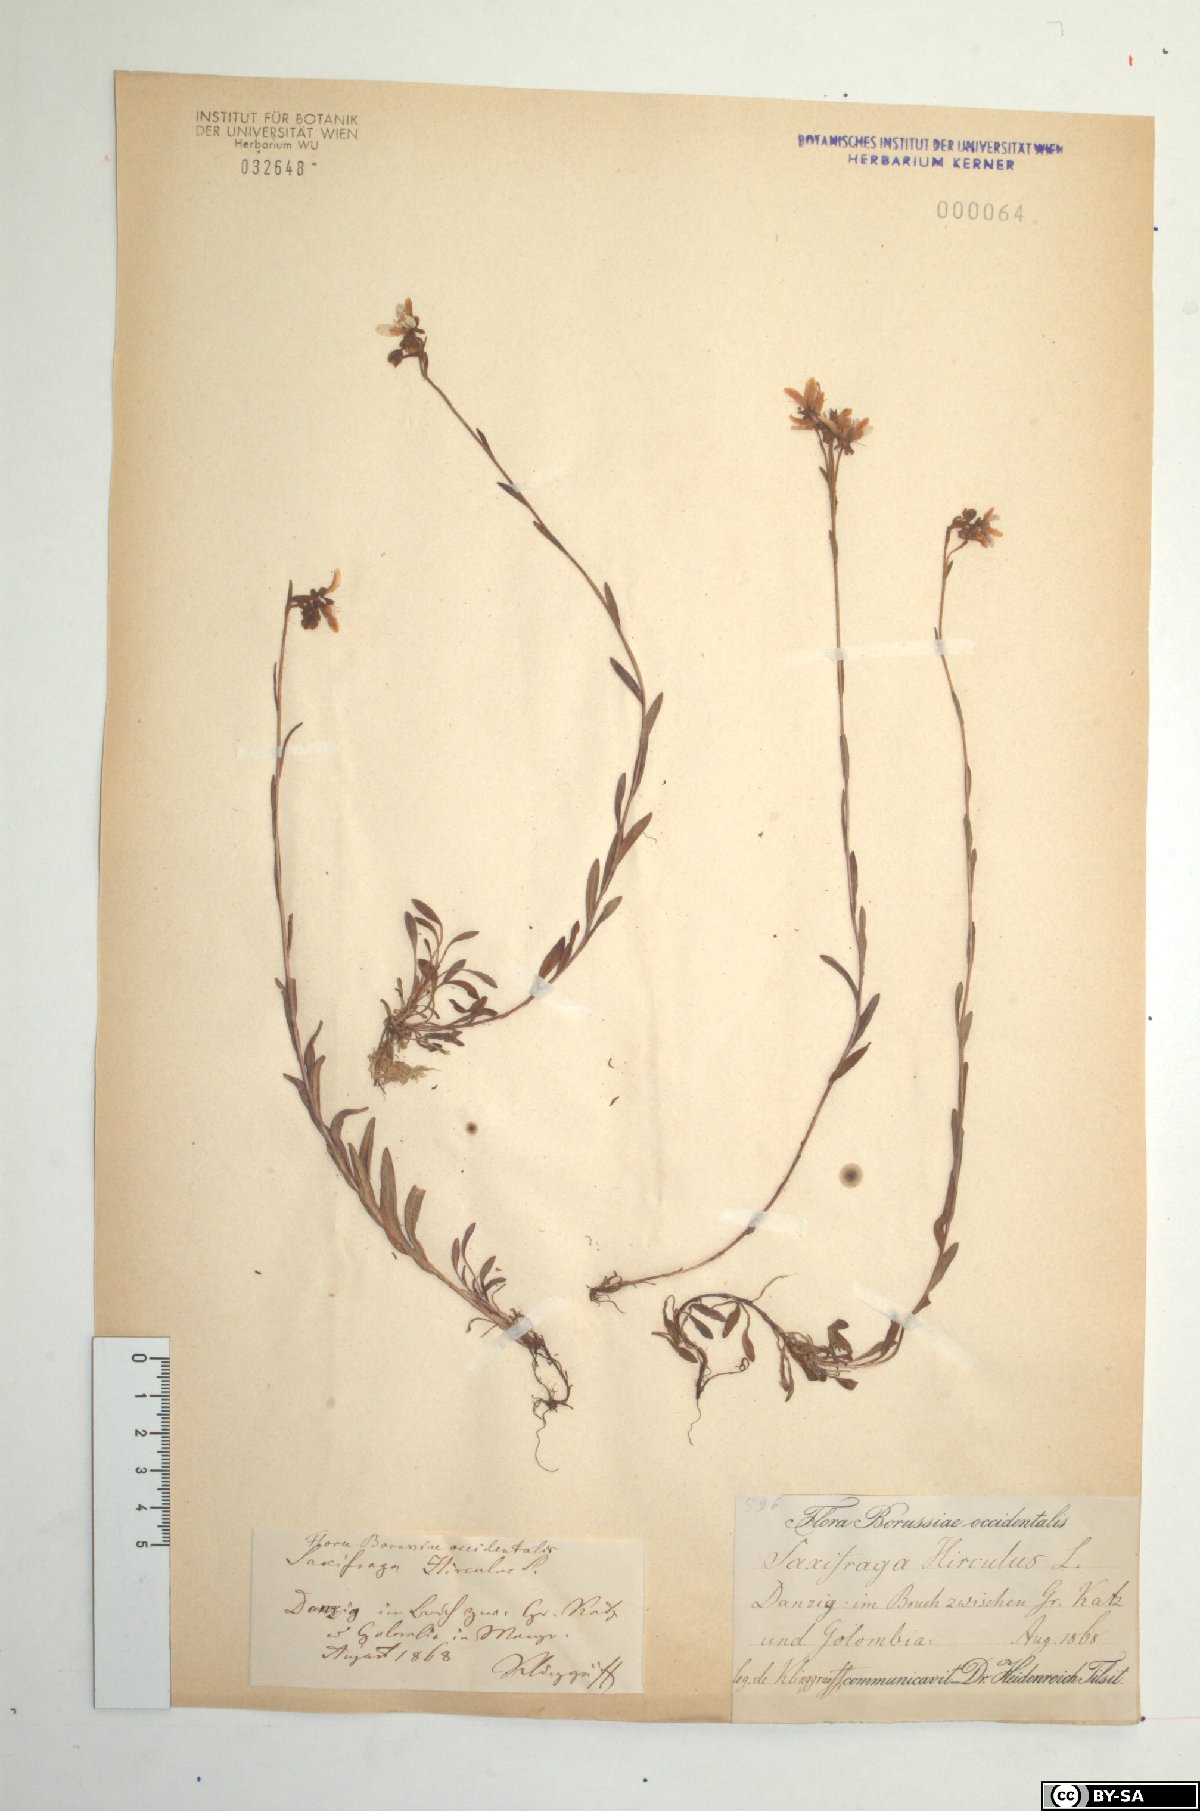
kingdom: Plantae
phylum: Tracheophyta
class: Magnoliopsida
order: Saxifragales
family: Saxifragaceae
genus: Saxifraga
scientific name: Saxifraga hirculus
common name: Yellow marsh saxifrage
